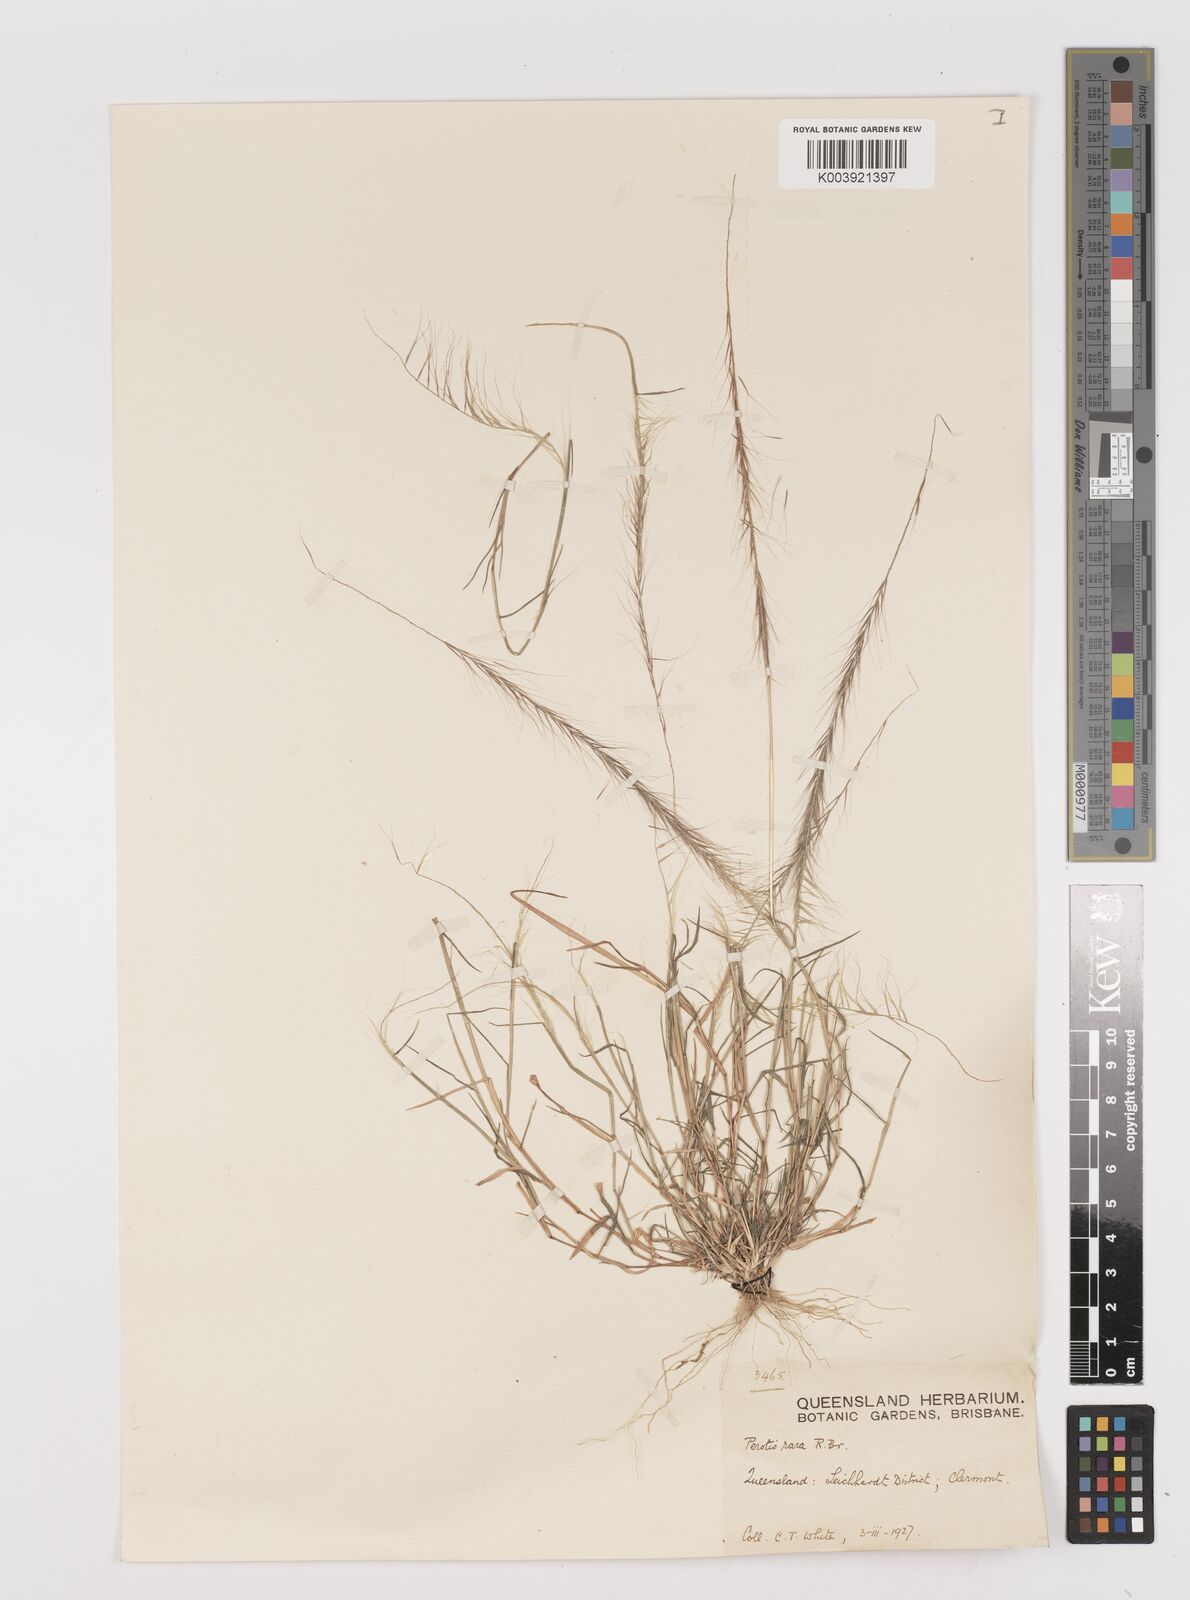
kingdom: Plantae
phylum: Tracheophyta
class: Liliopsida
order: Poales
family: Poaceae
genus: Perotis
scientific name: Perotis rara
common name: Comet grass
